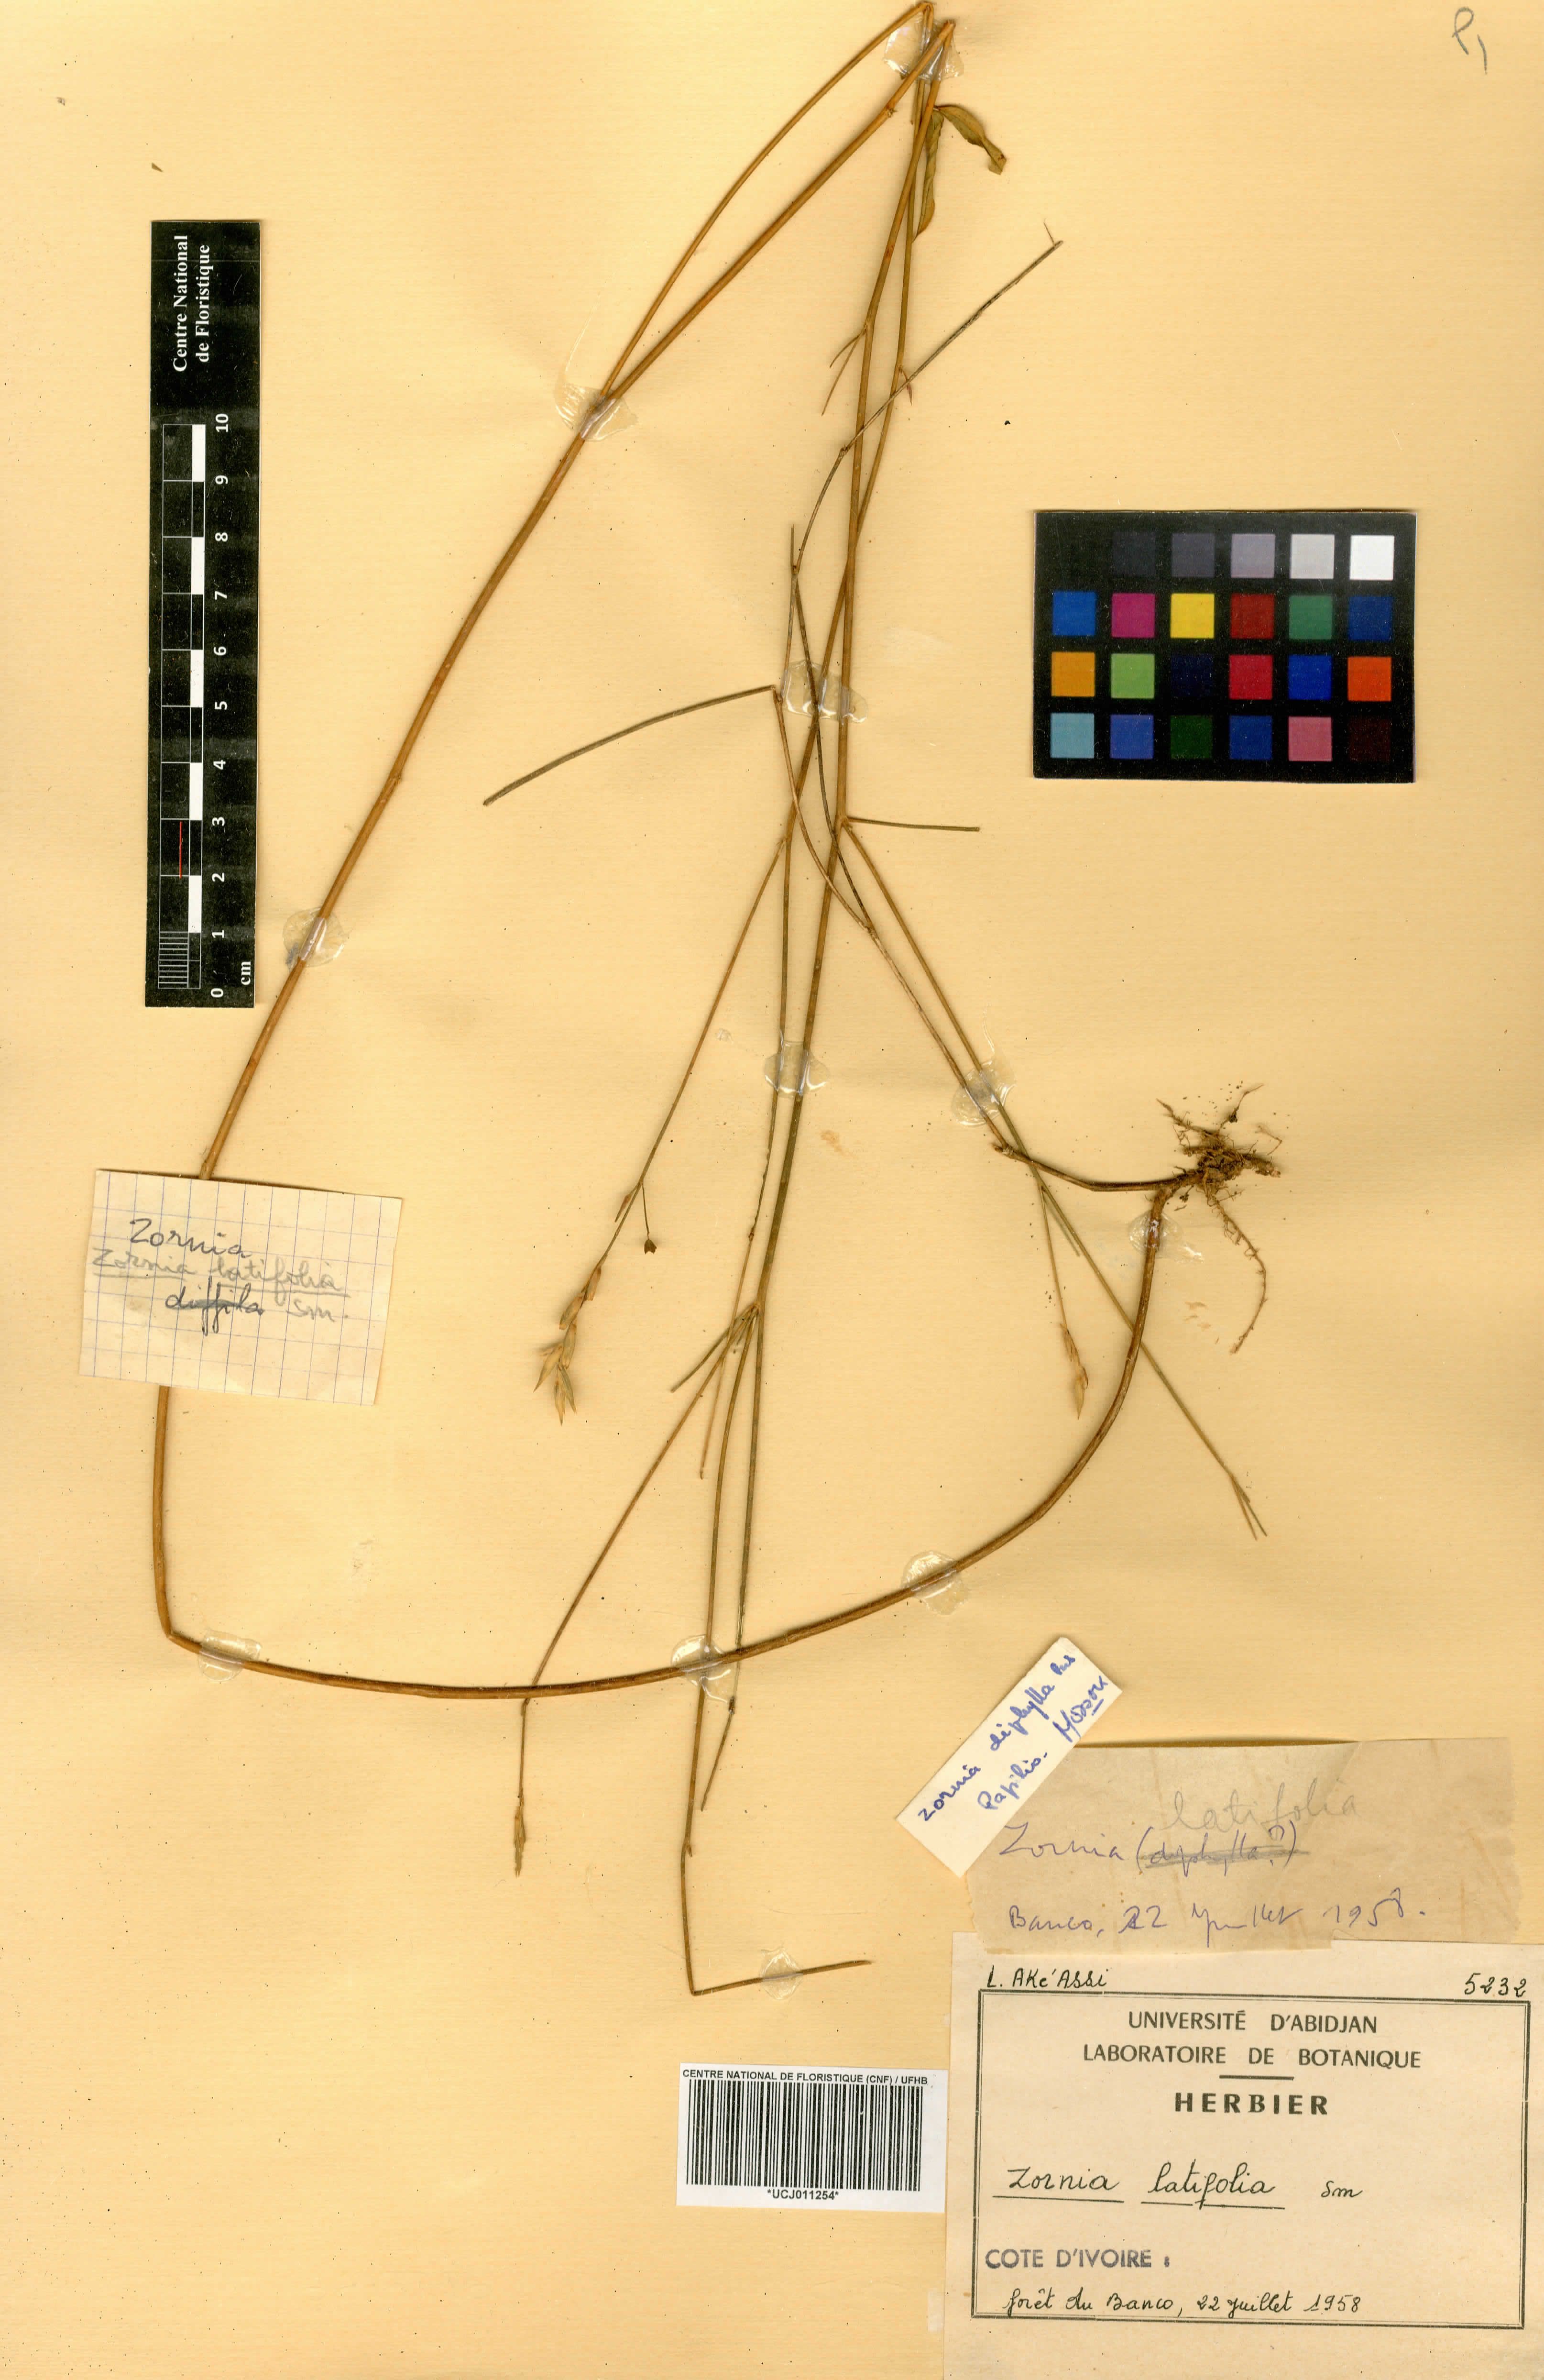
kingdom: Plantae
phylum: Tracheophyta
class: Magnoliopsida
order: Fabales
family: Fabaceae
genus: Zornia
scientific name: Zornia latifolia
